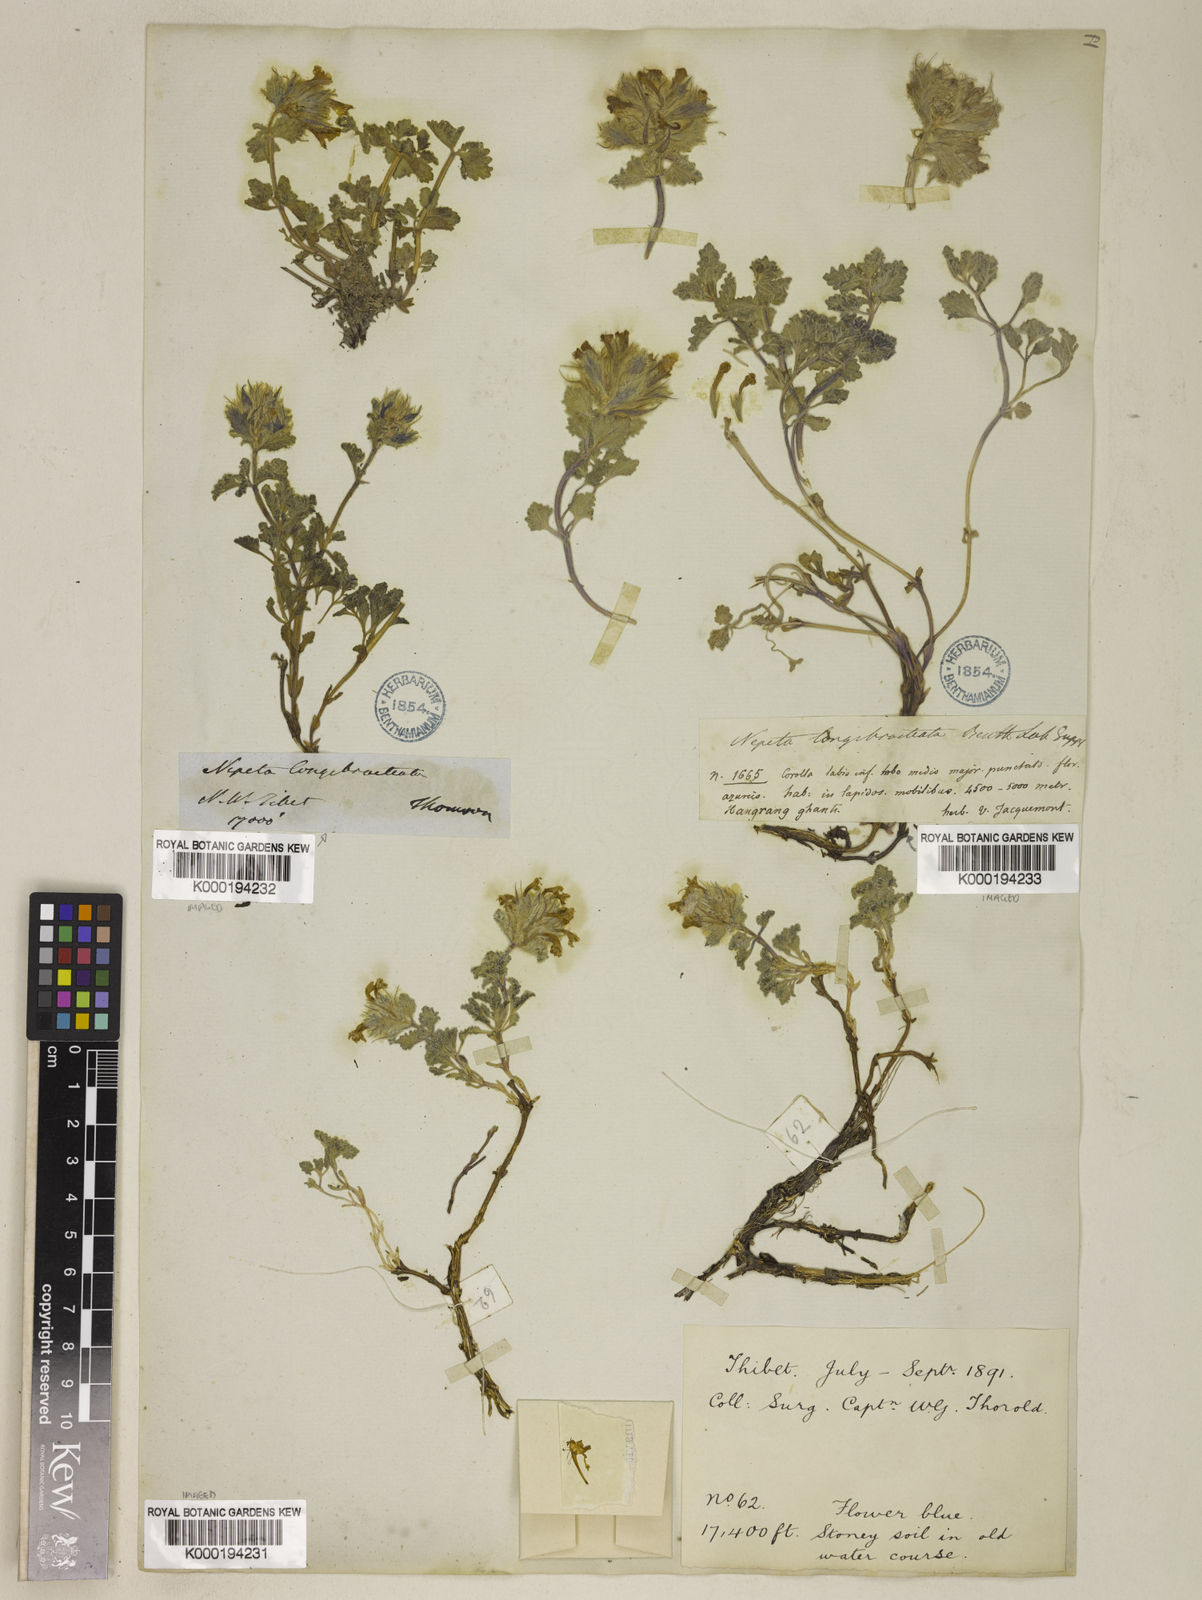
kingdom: Plantae
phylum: Tracheophyta
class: Magnoliopsida
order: Lamiales
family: Lamiaceae
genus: Nepeta
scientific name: Nepeta longibracteata
